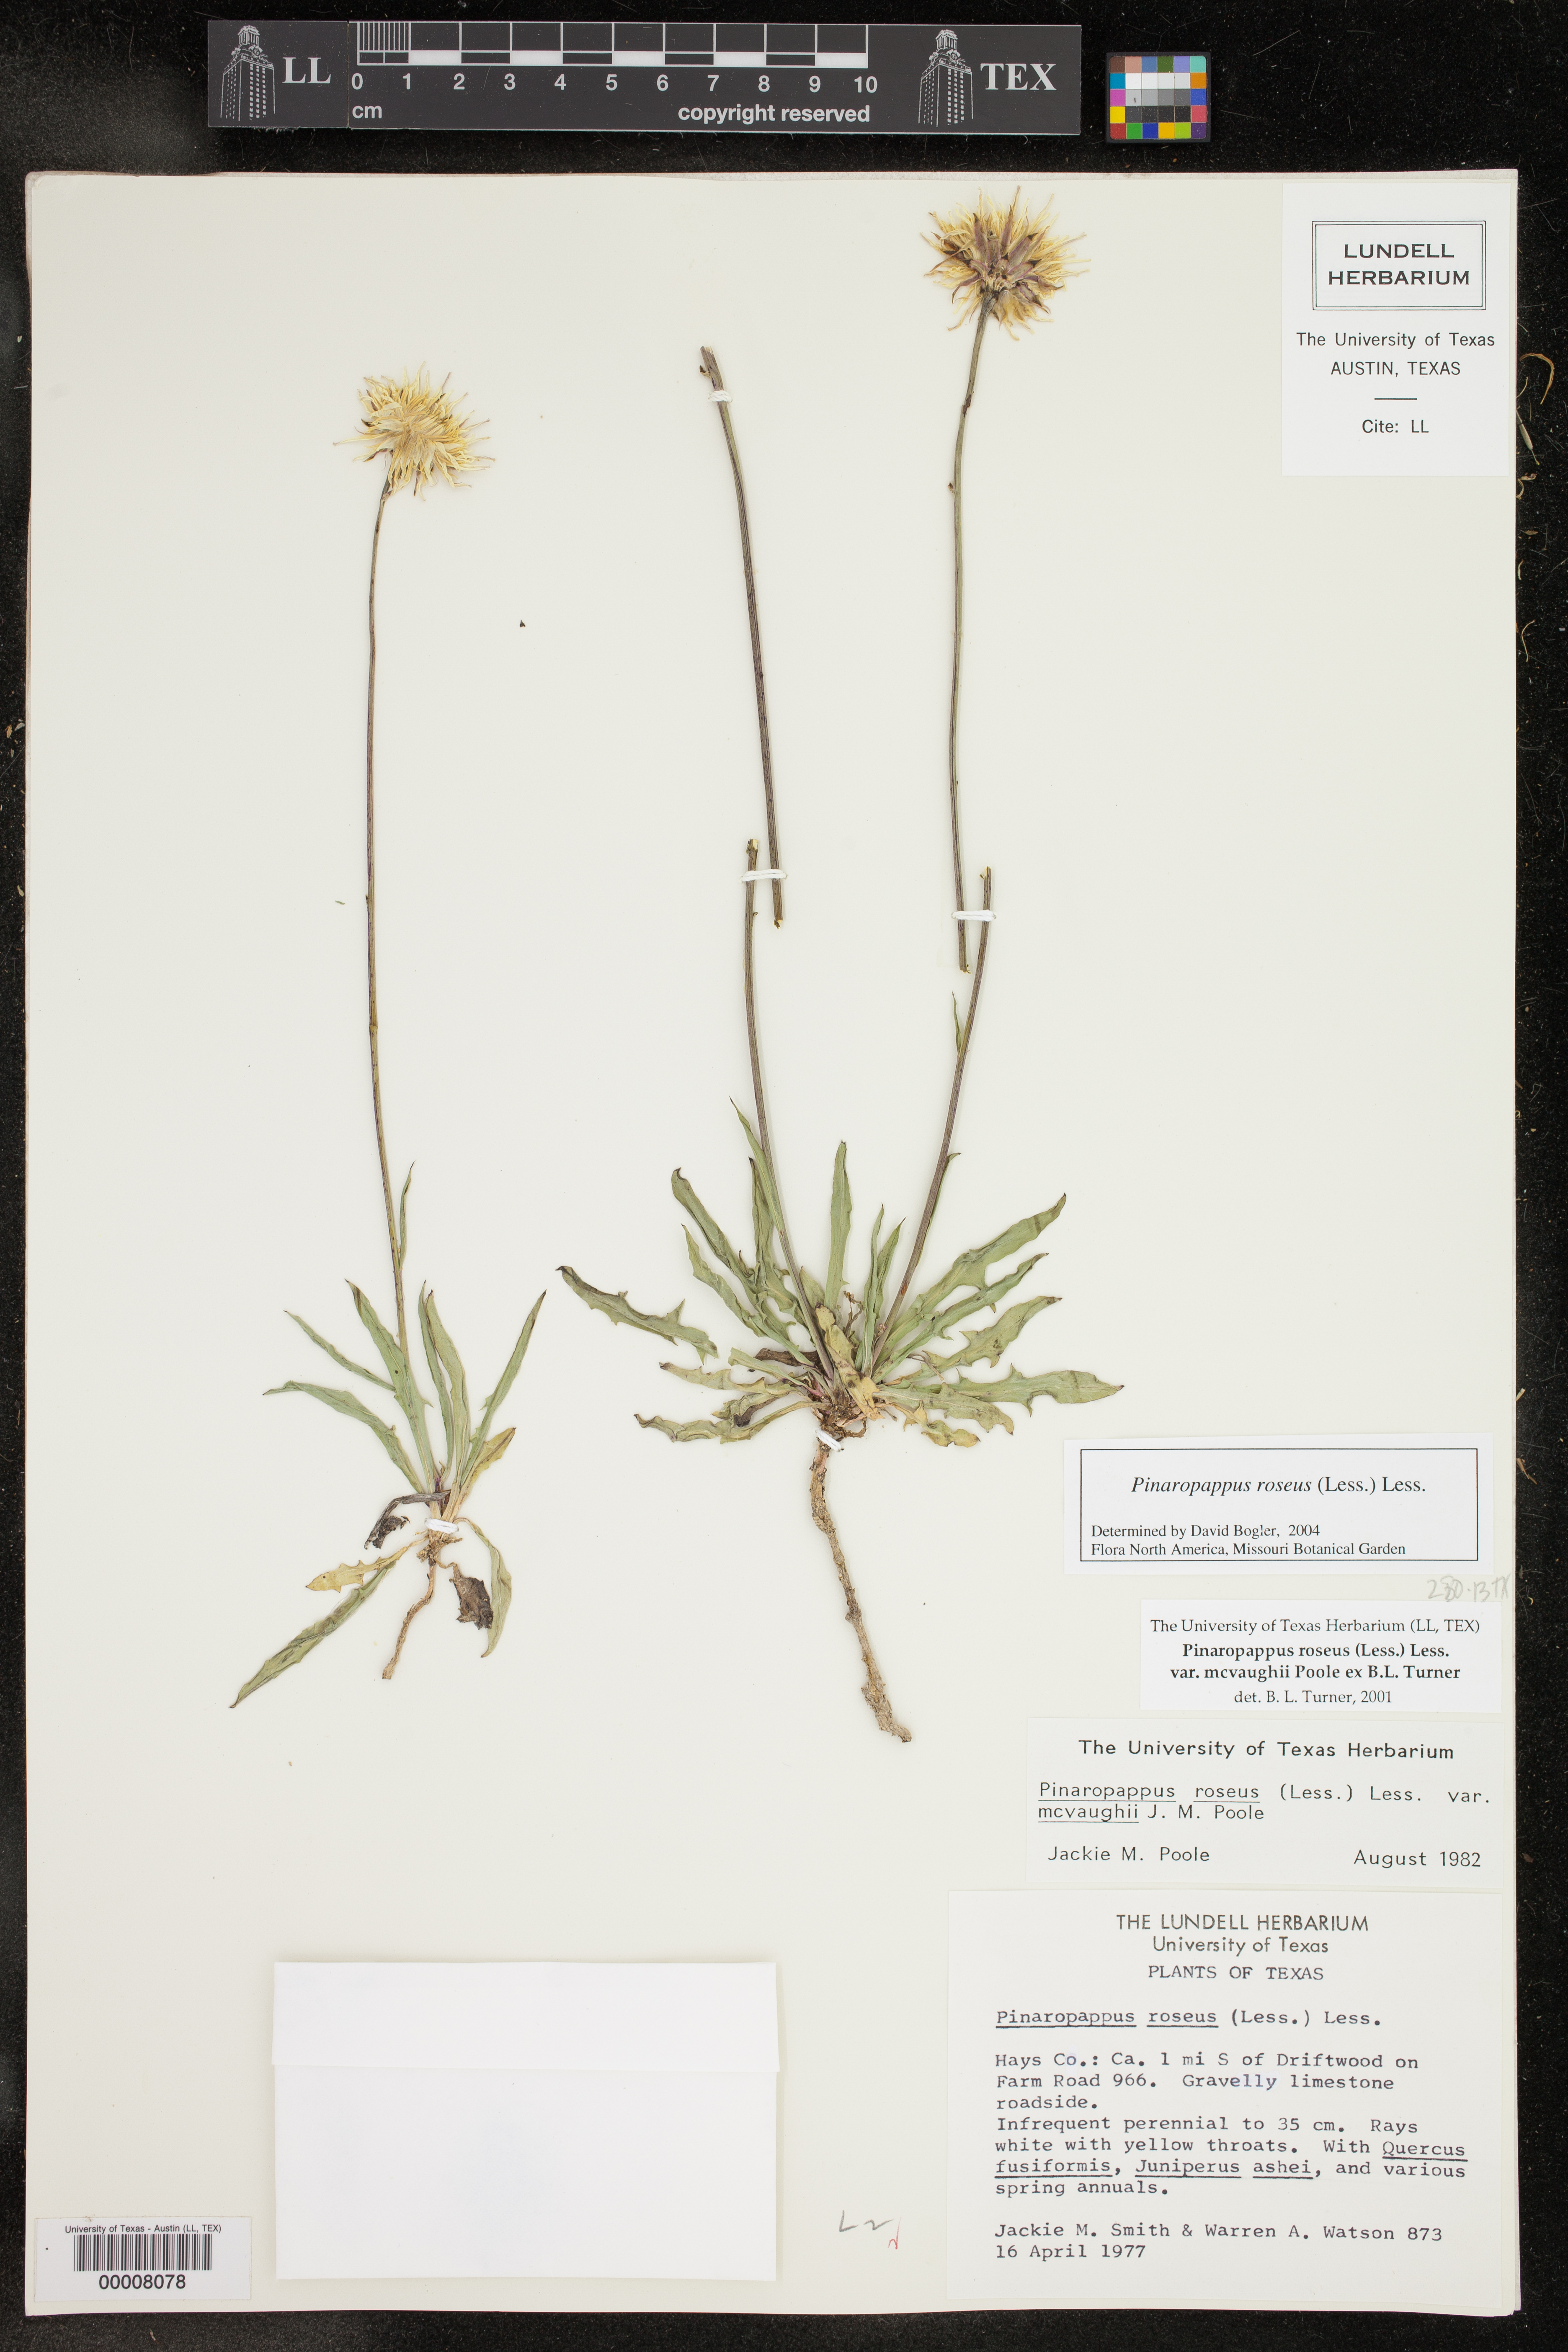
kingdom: Plantae
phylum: Tracheophyta
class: Magnoliopsida
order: Asterales
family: Asteraceae
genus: Pinaropappus
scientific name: Pinaropappus roseus
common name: Rock-lettuce
